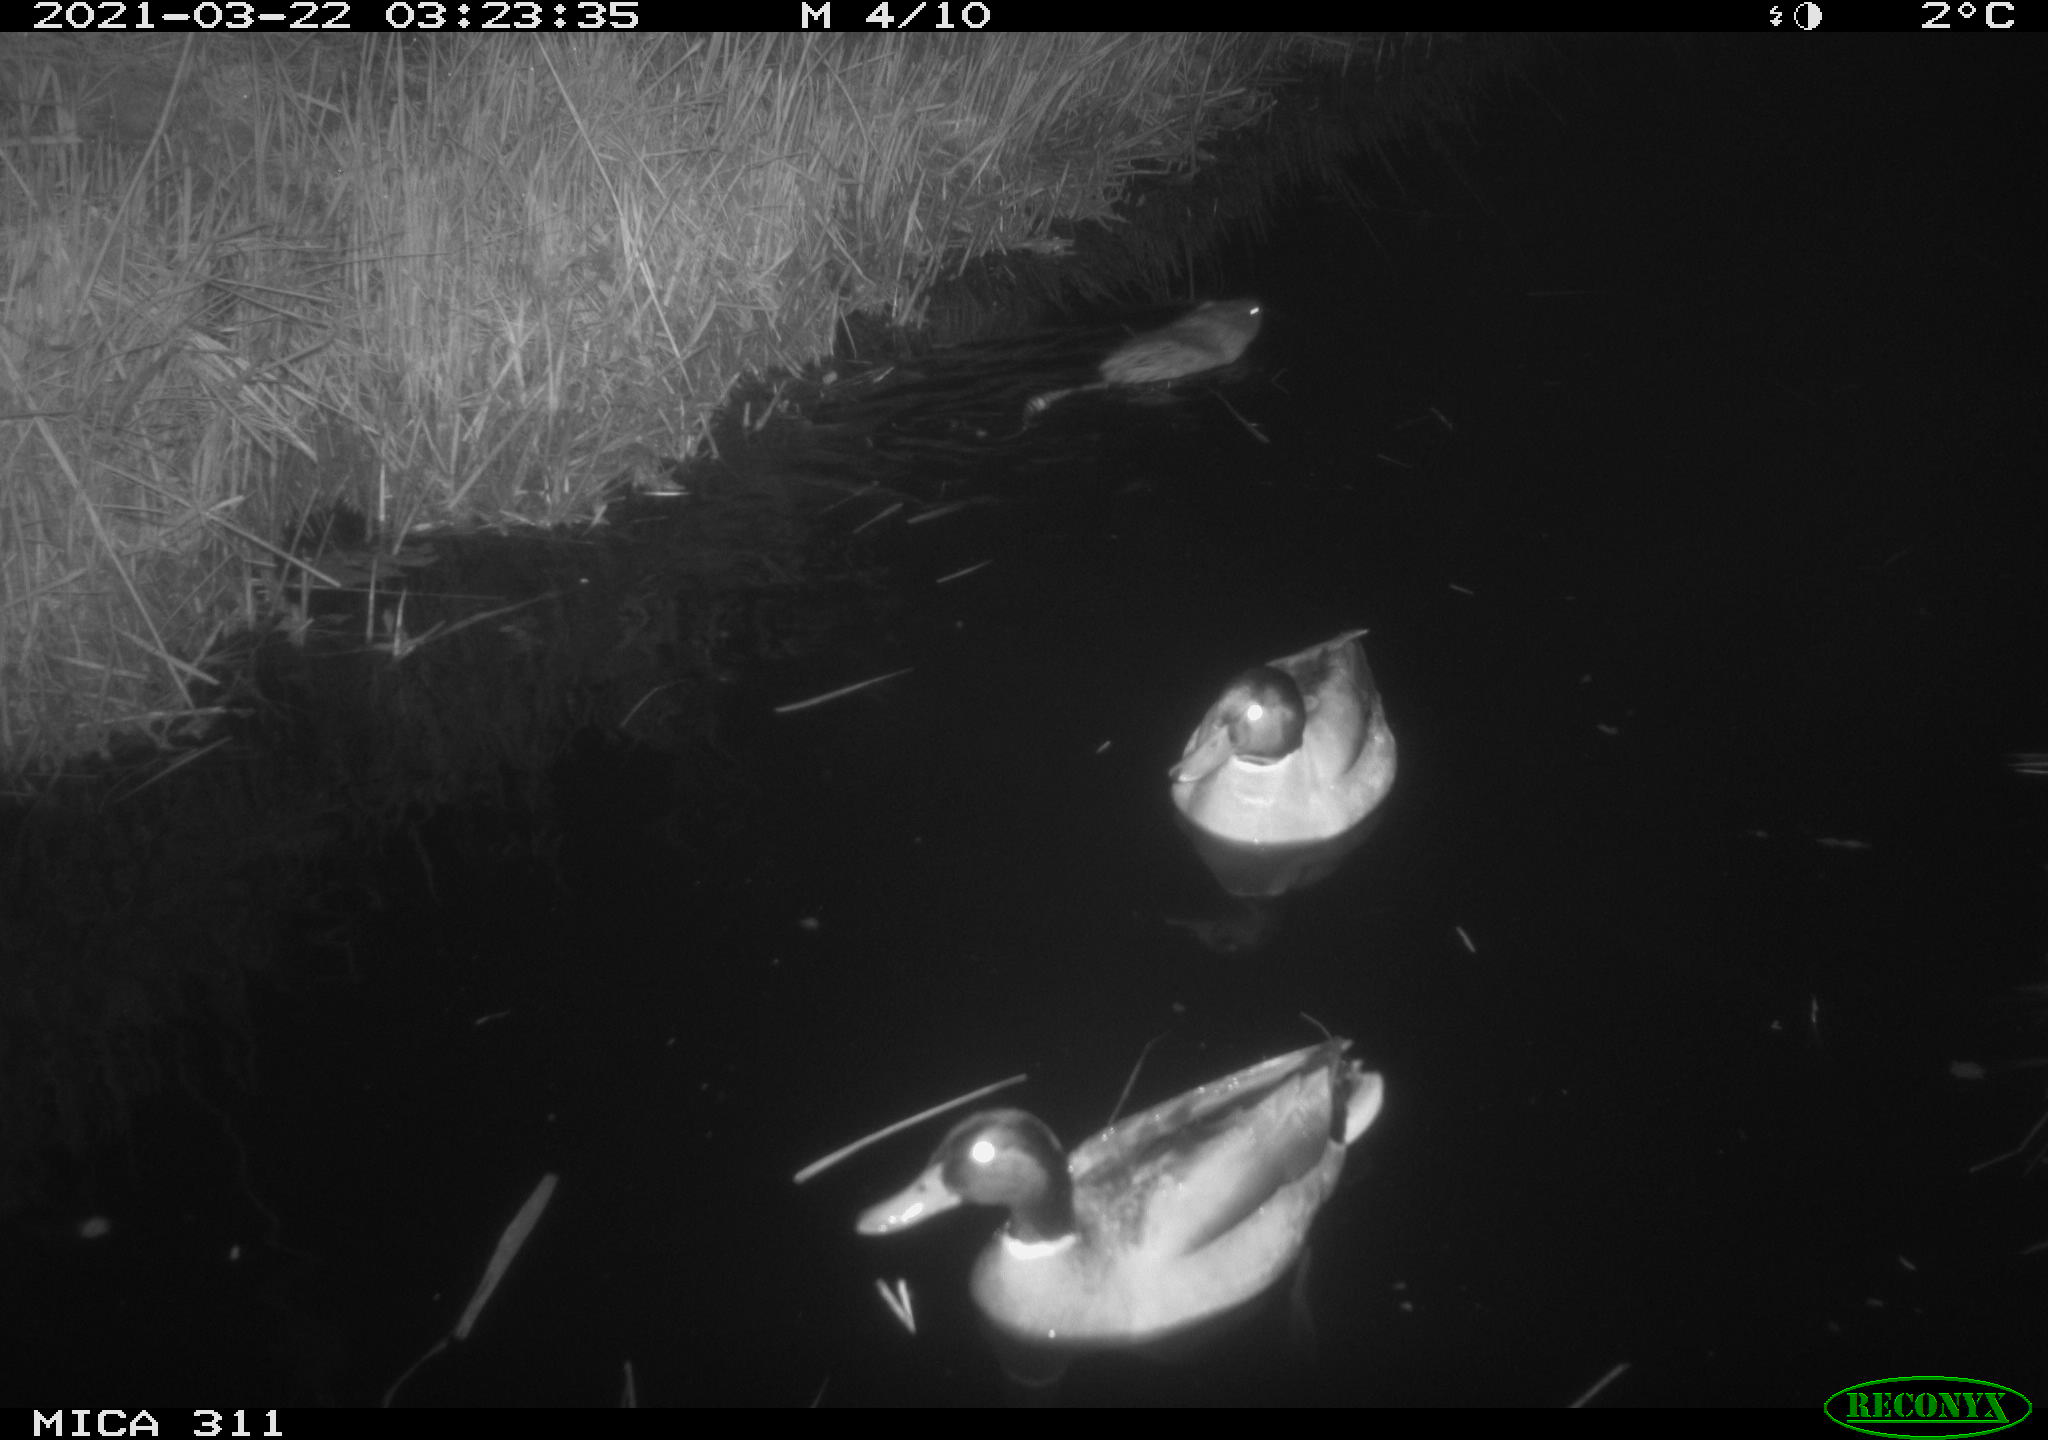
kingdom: Animalia
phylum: Chordata
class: Mammalia
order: Rodentia
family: Cricetidae
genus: Ondatra
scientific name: Ondatra zibethicus
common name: Muskrat
